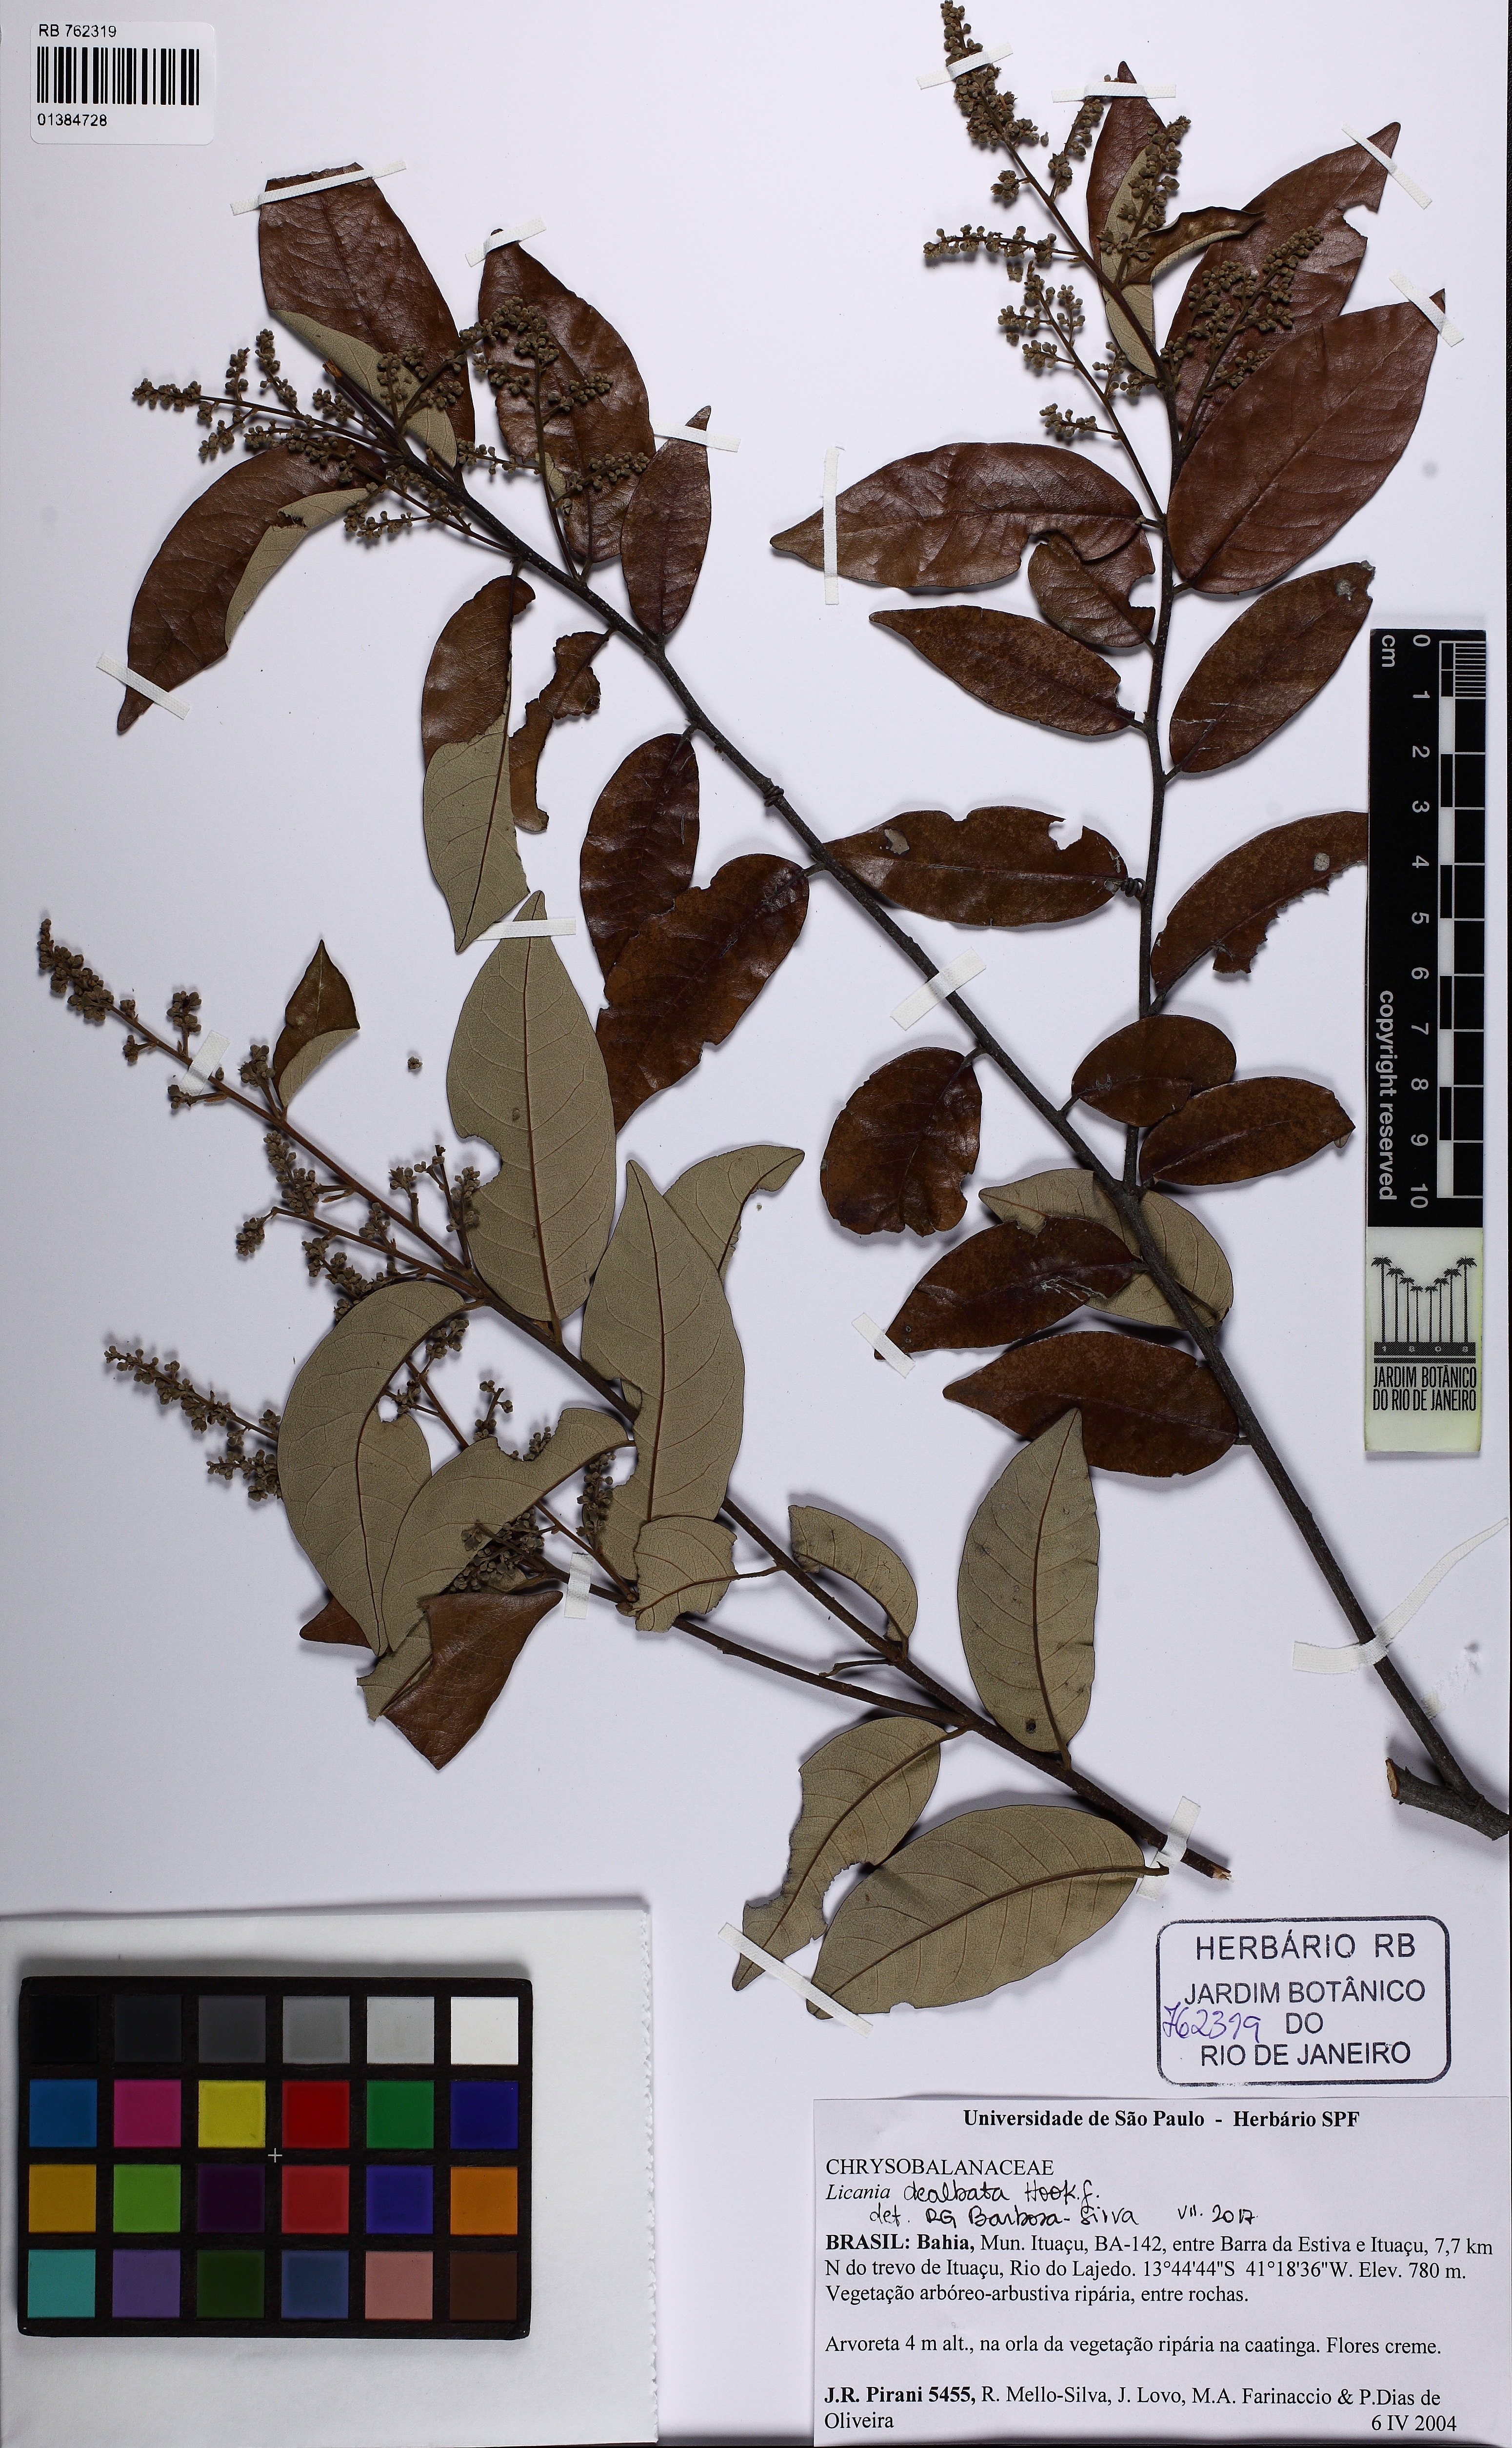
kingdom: Plantae
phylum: Tracheophyta
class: Magnoliopsida
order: Malpighiales
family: Chrysobalanaceae
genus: Licania
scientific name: Licania dealbata
